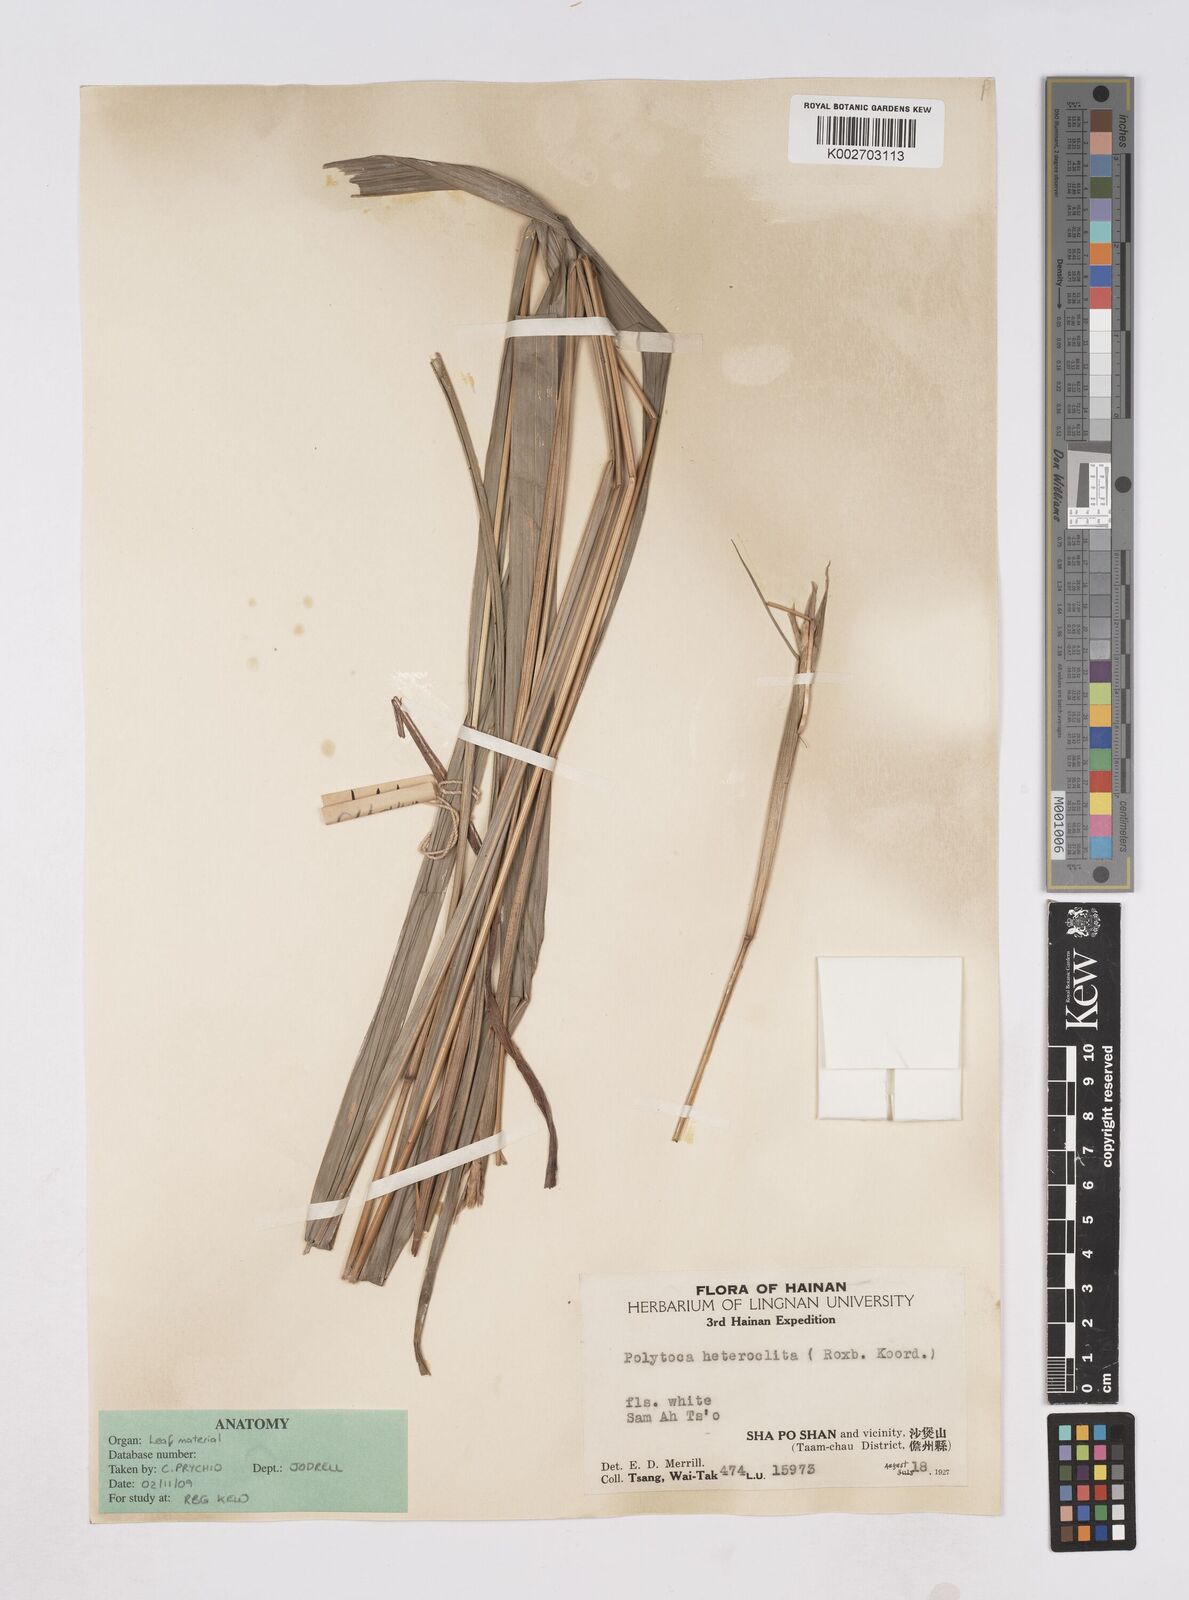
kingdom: Plantae
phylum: Tracheophyta
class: Liliopsida
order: Poales
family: Poaceae
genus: Polytoca
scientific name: Polytoca digitata
